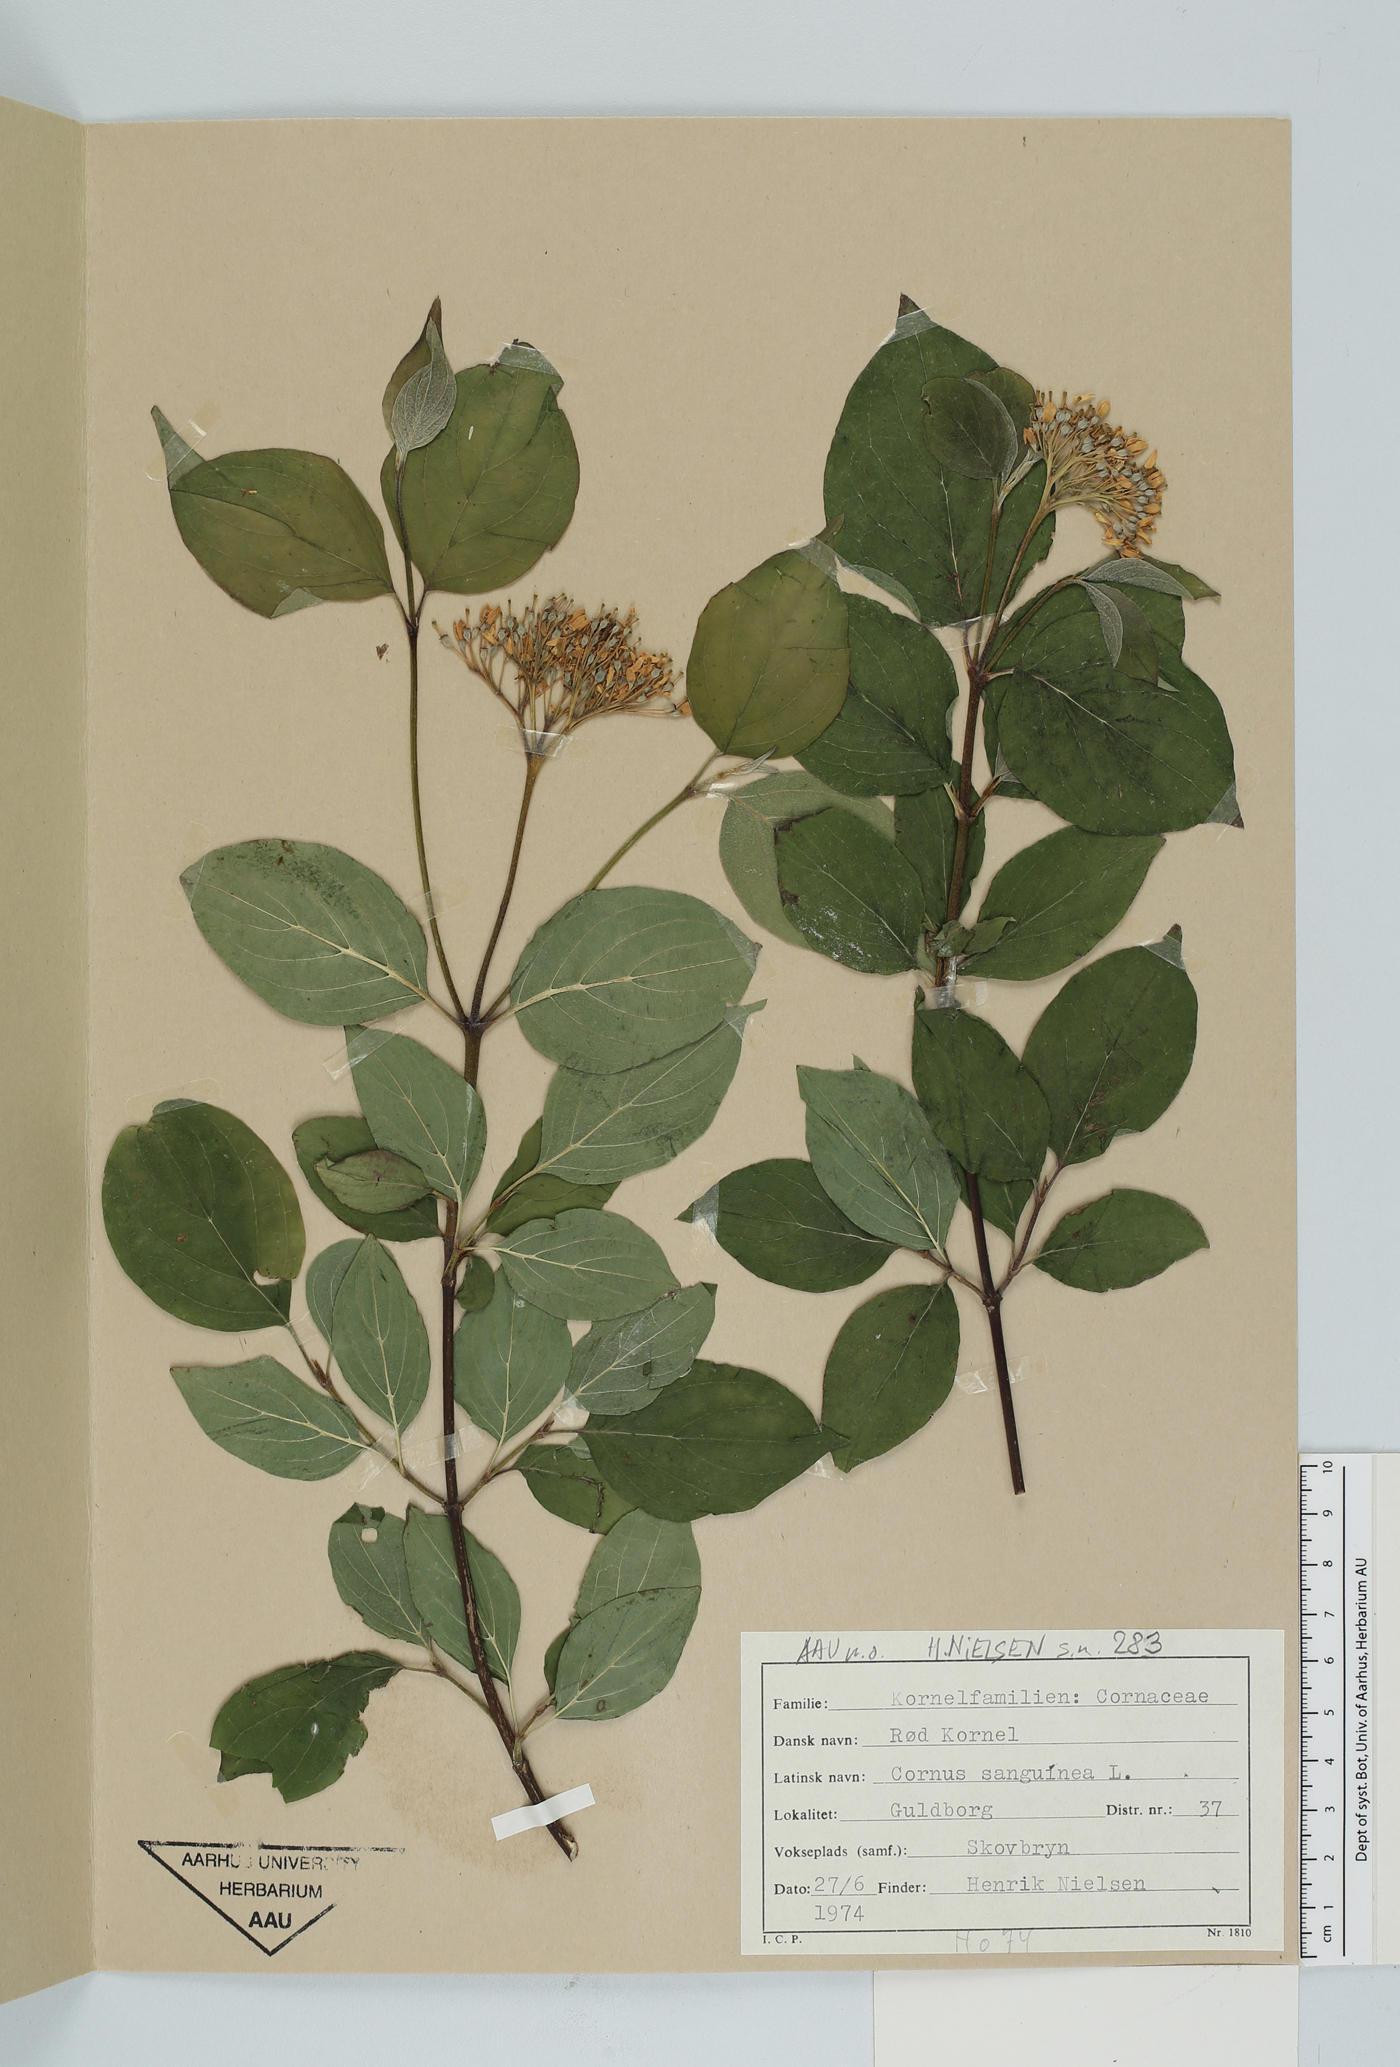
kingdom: Plantae
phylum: Tracheophyta
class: Magnoliopsida
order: Cornales
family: Cornaceae
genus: Cornus
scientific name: Cornus sanguinea
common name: Dogwood
